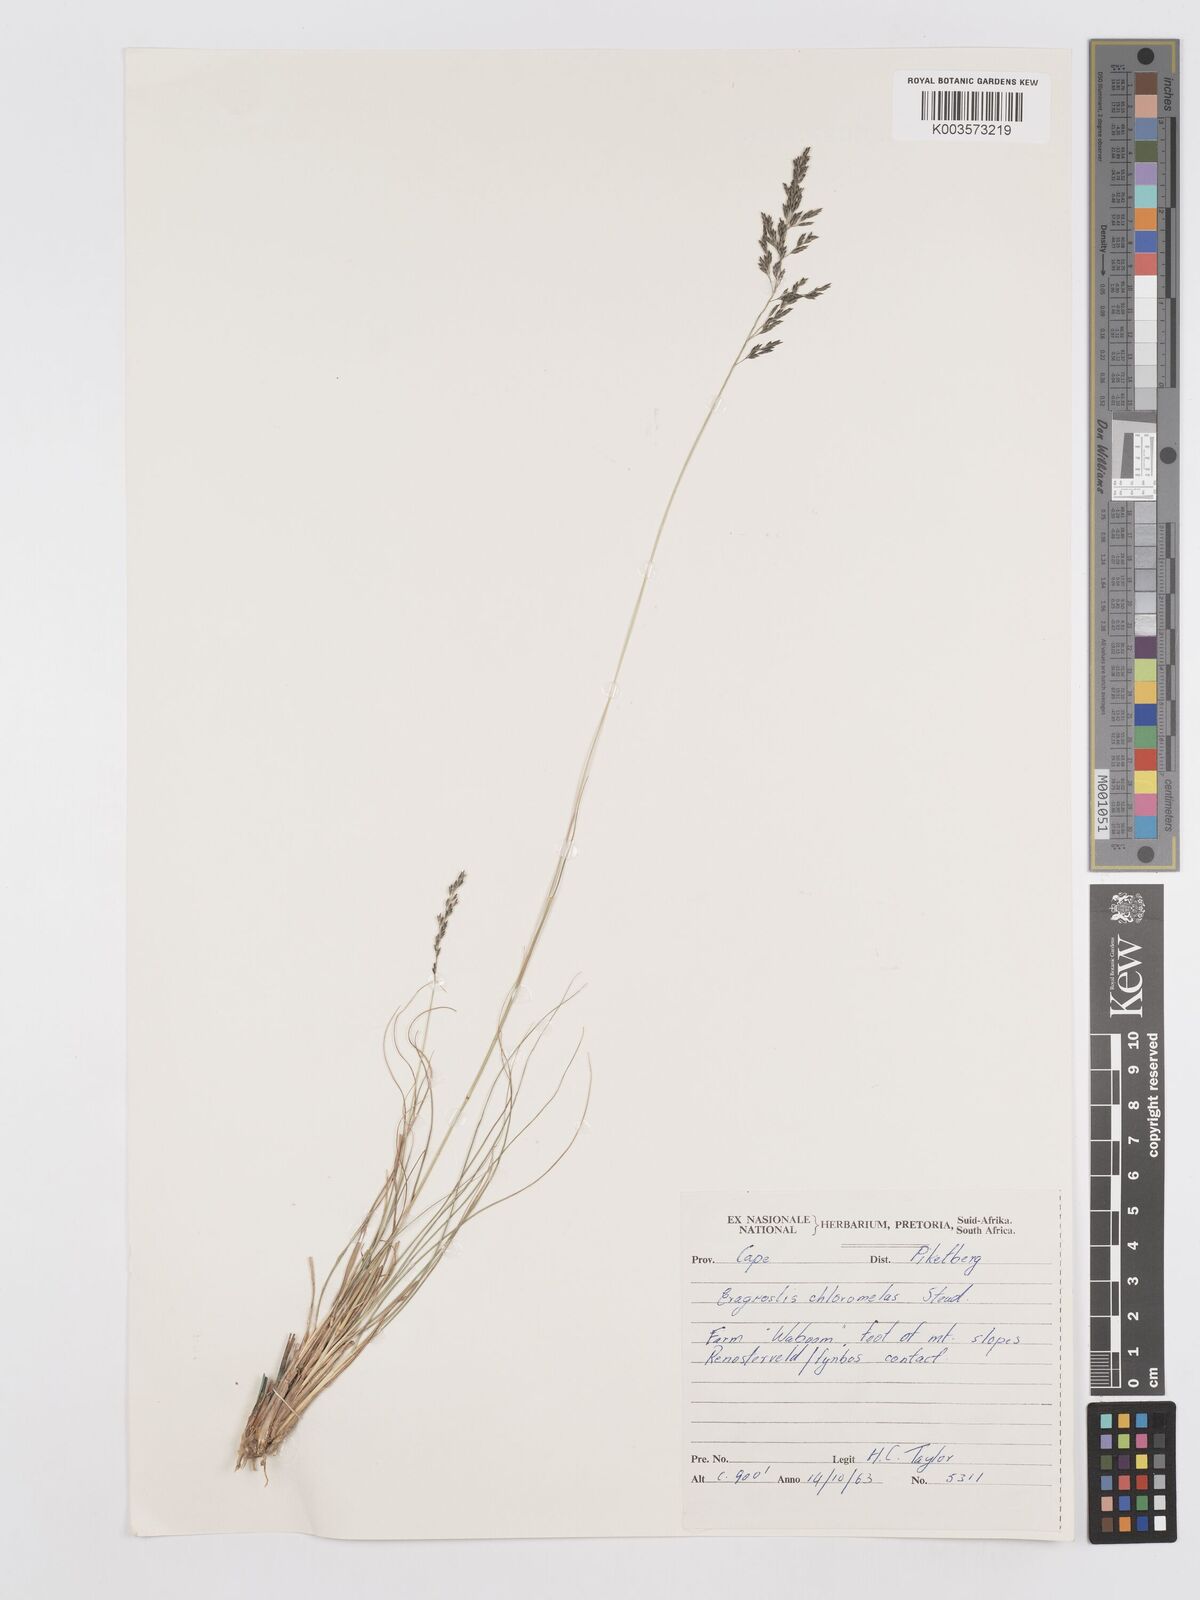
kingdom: Plantae
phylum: Tracheophyta
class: Liliopsida
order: Poales
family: Poaceae
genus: Eragrostis
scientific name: Eragrostis curvula
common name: African love-grass
